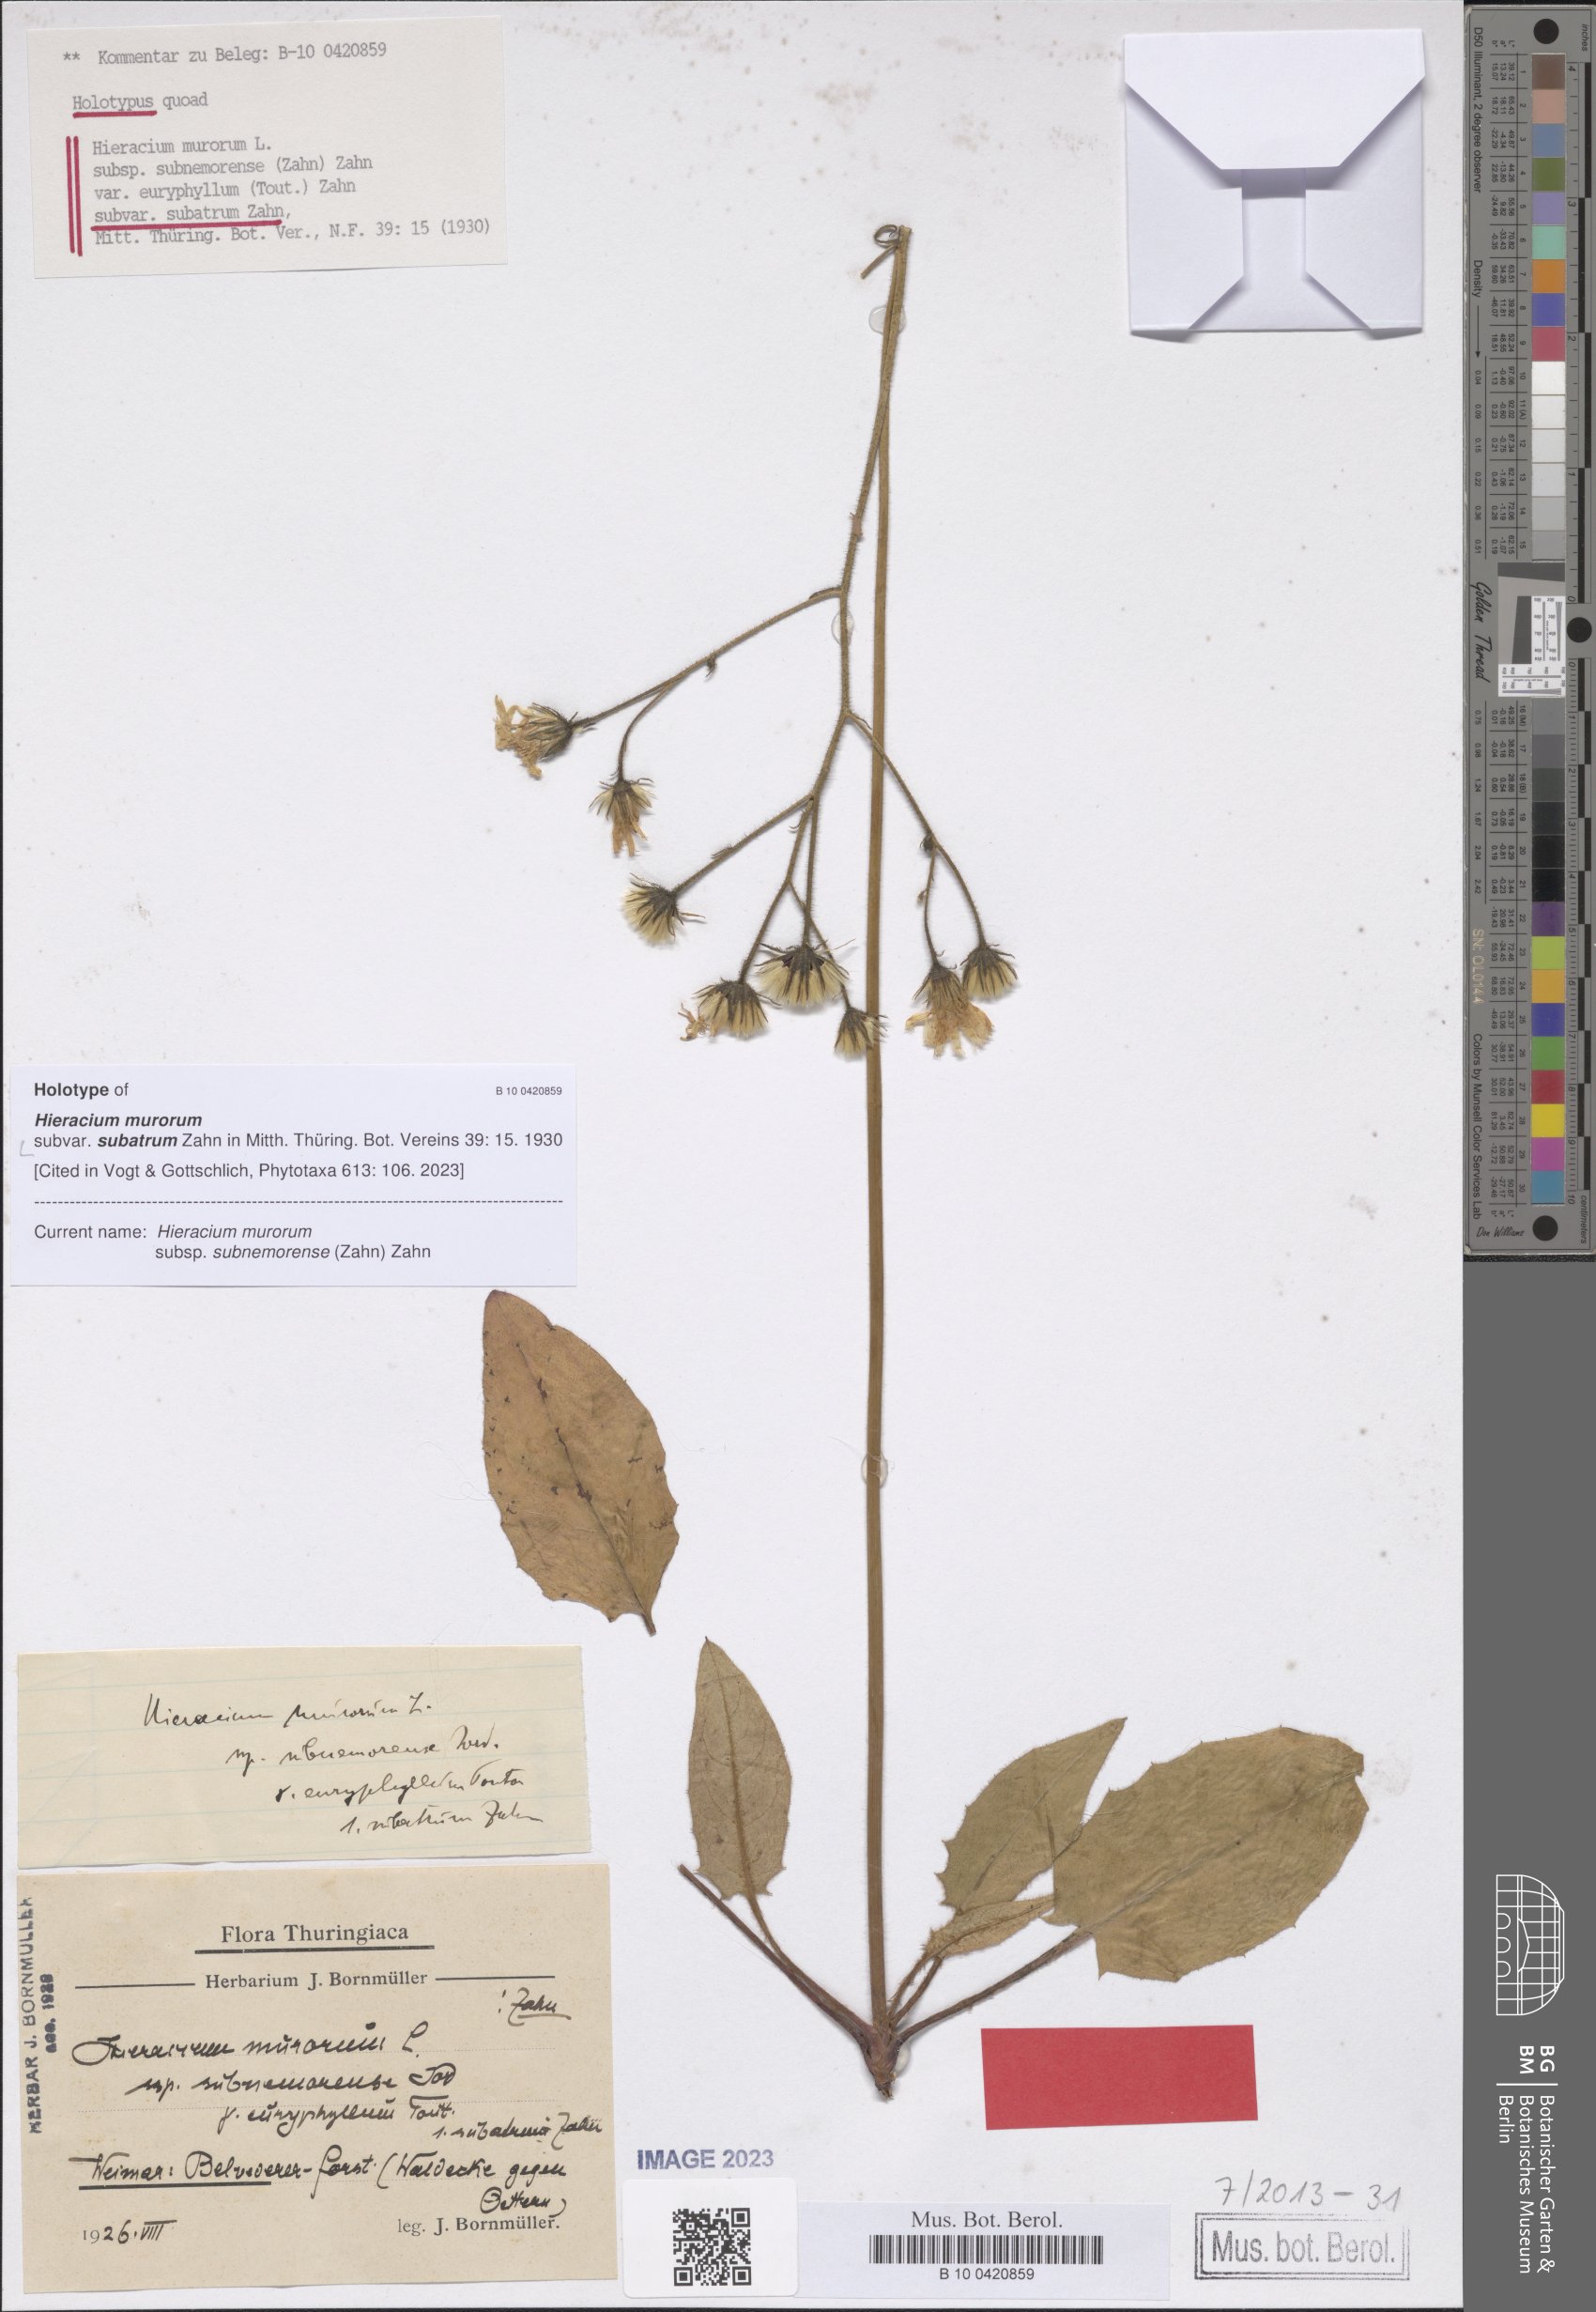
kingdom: Plantae
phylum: Tracheophyta
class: Magnoliopsida
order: Asterales
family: Asteraceae
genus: Hieracium
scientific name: Hieracium murorum
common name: Wall hawkweed
